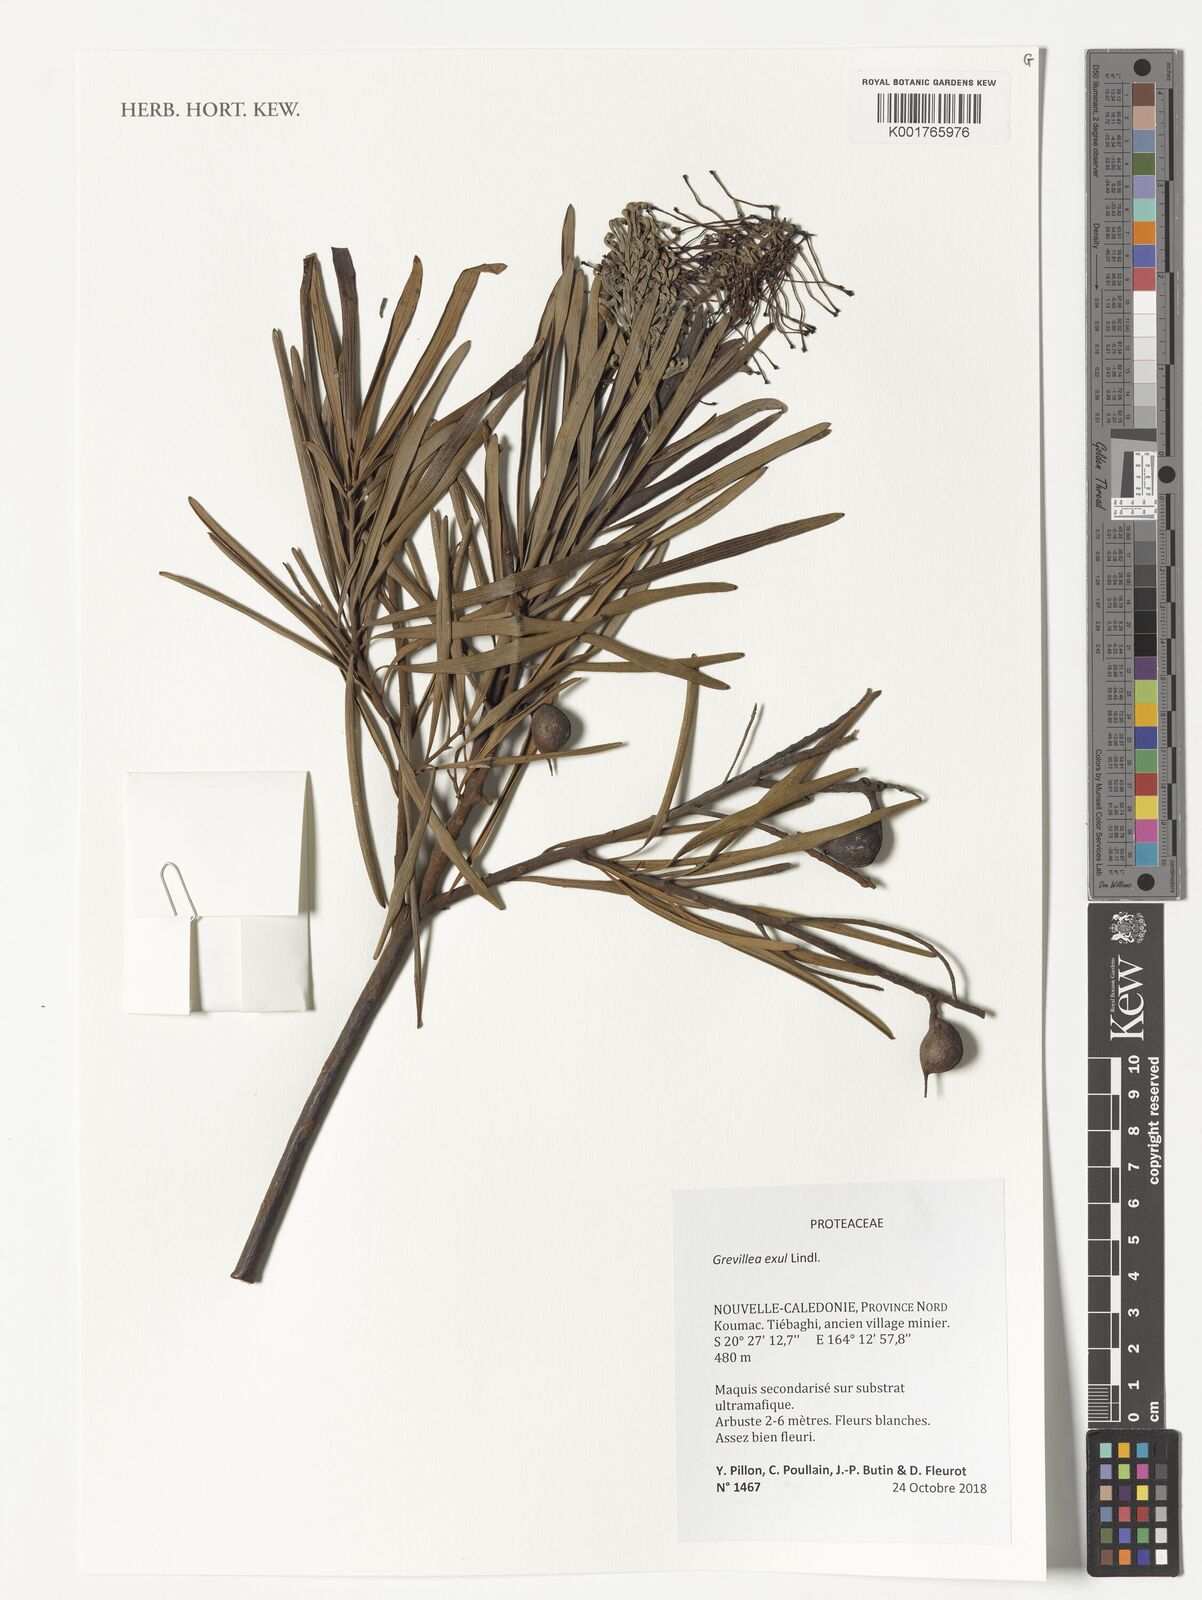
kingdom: Plantae
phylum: Tracheophyta
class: Magnoliopsida
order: Proteales
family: Proteaceae
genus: Grevillea
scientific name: Grevillea exul
